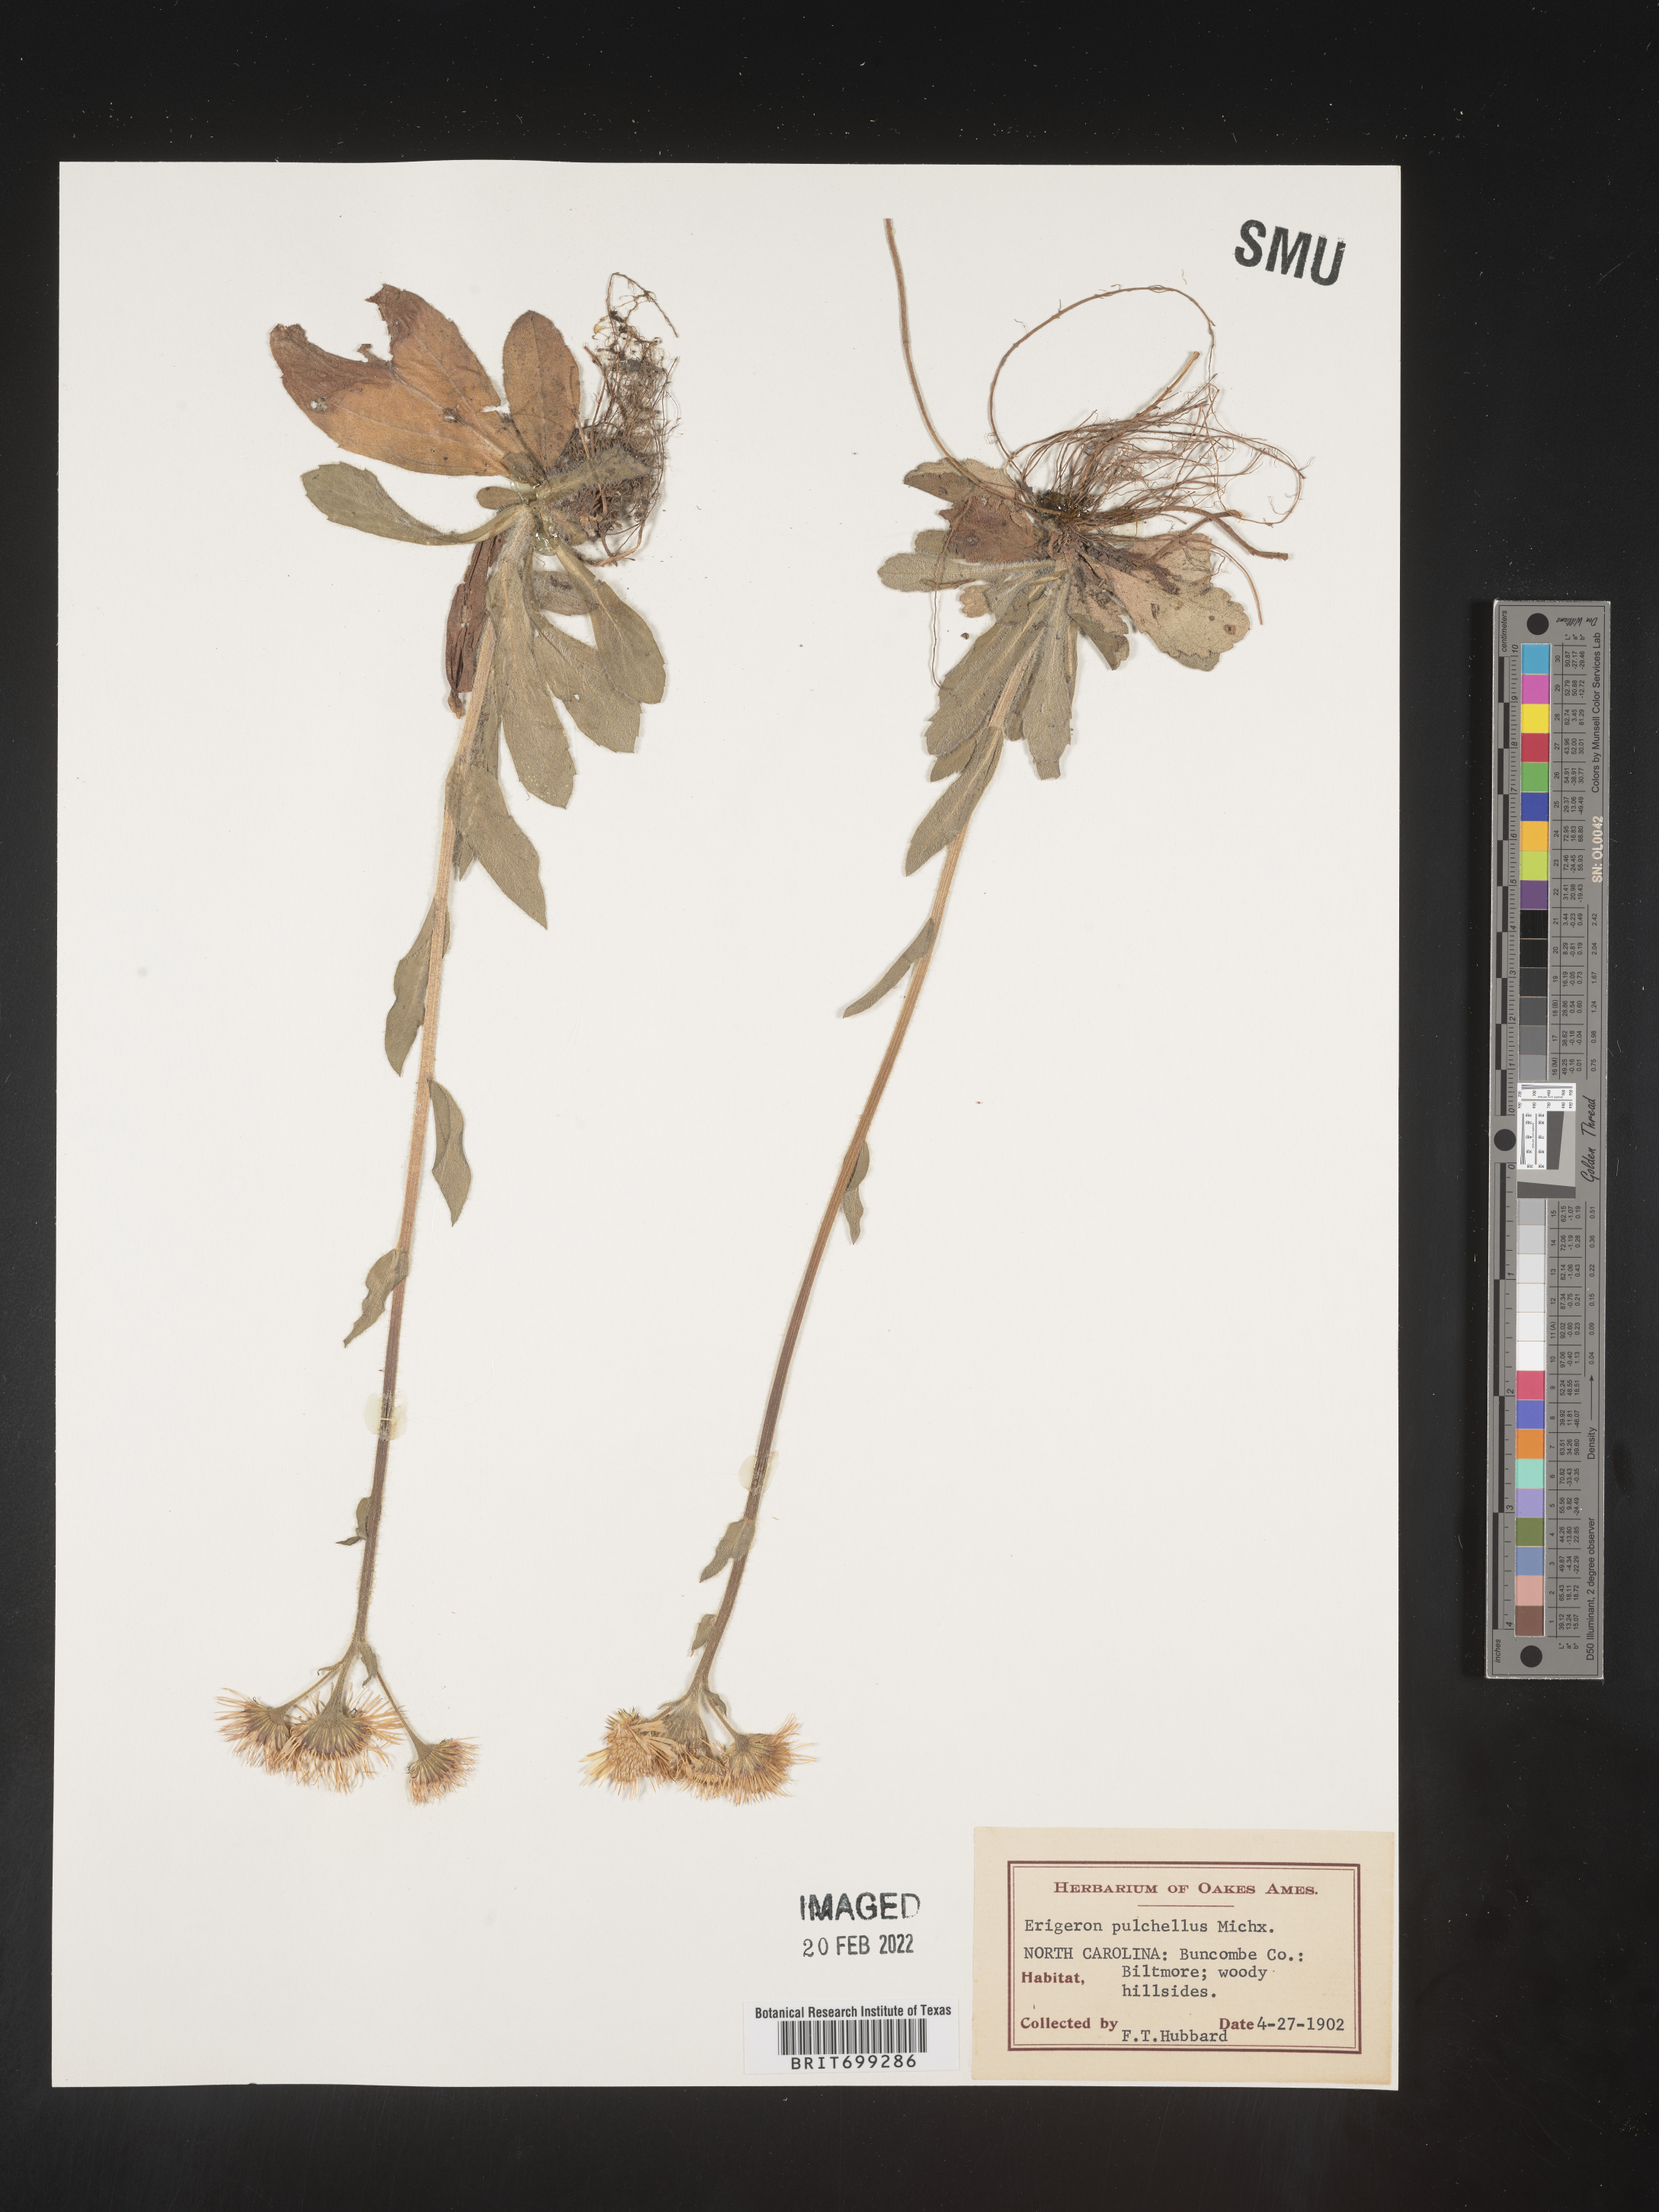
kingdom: Plantae
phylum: Tracheophyta
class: Magnoliopsida
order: Asterales
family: Asteraceae
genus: Erigeron
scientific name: Erigeron pulchellus
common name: Hairy fleabane
